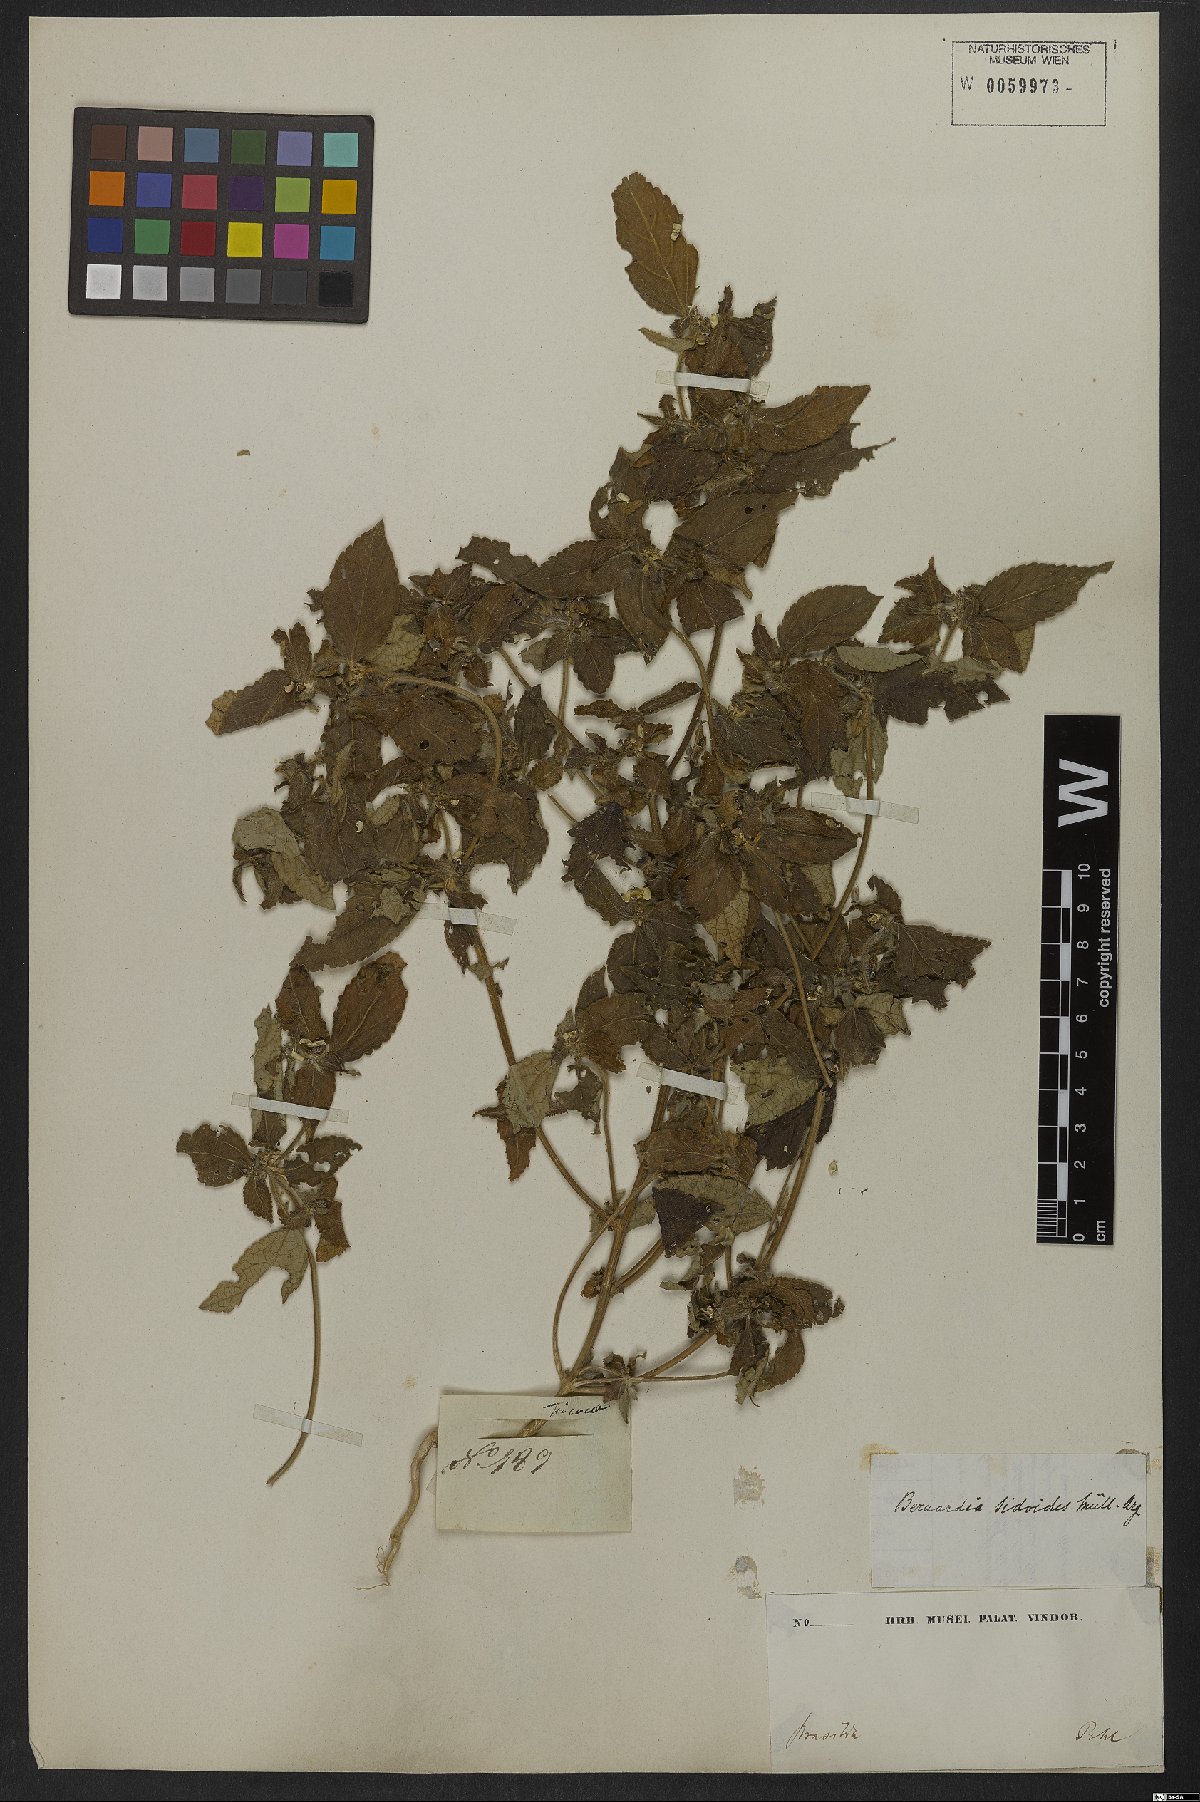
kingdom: Plantae
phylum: Tracheophyta
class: Magnoliopsida
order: Malpighiales
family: Euphorbiaceae
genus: Bernardia
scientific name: Bernardia sidoides
